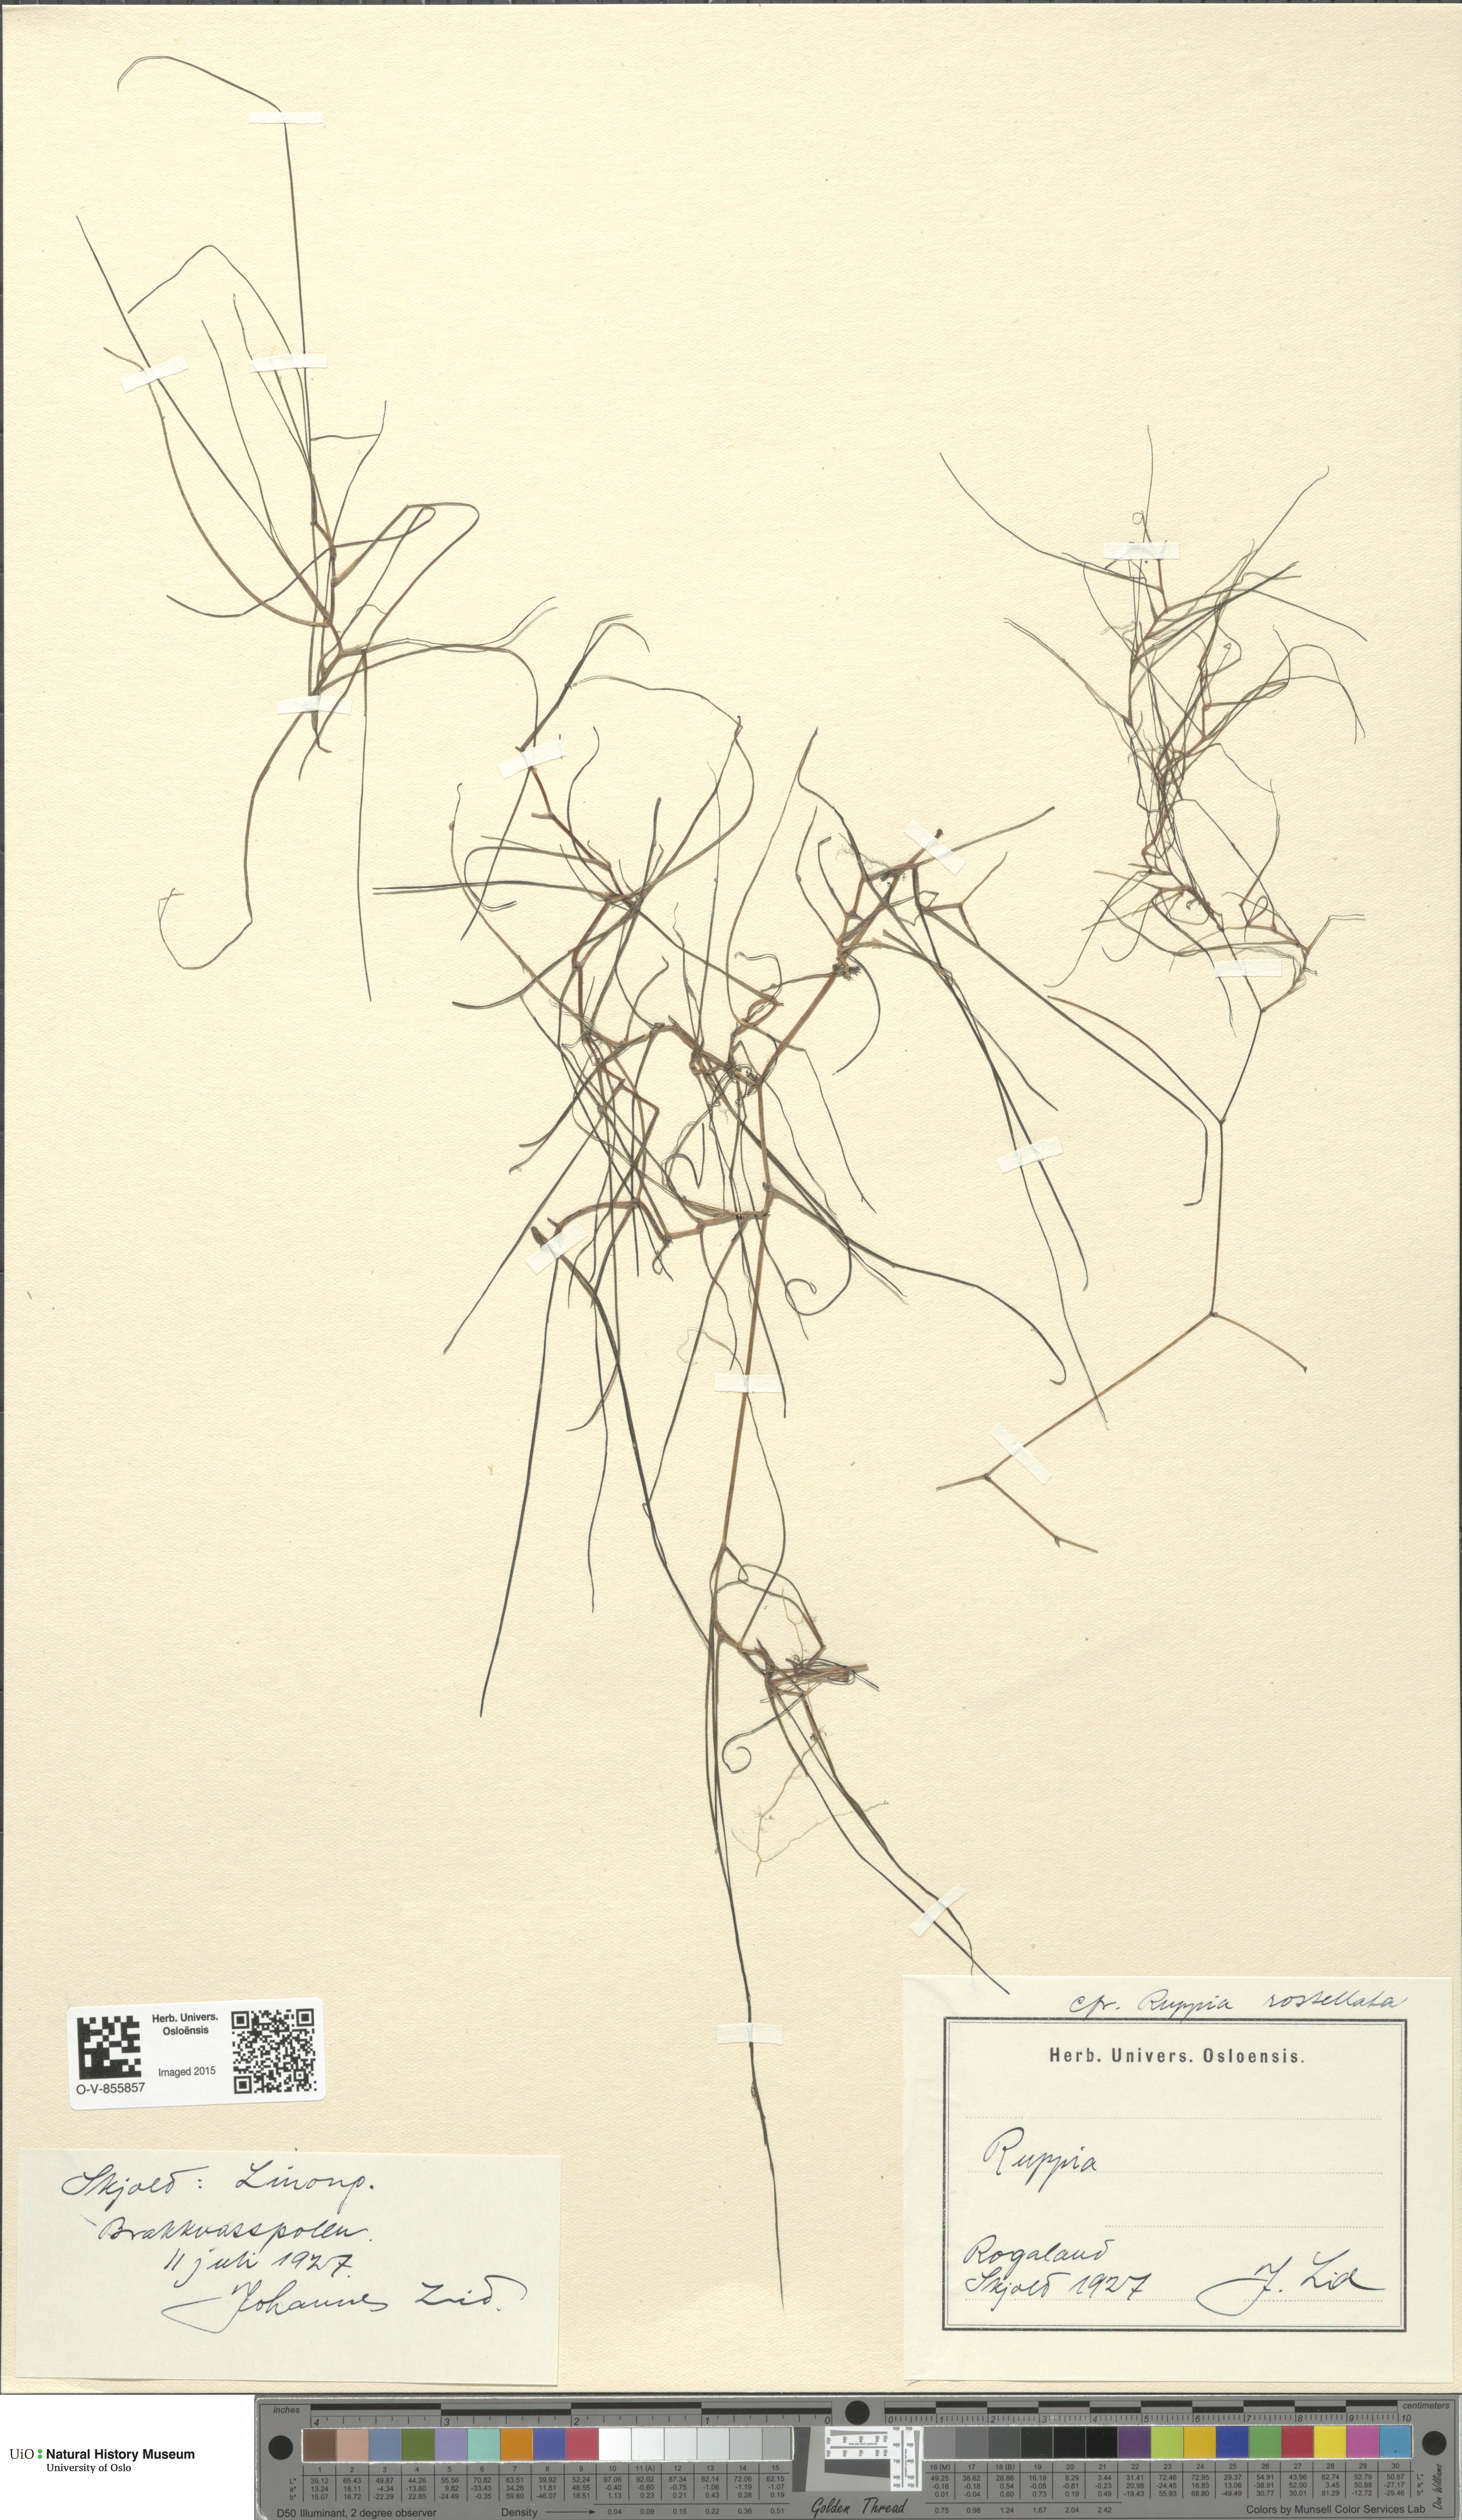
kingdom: Plantae
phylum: Tracheophyta
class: Liliopsida
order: Alismatales
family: Ruppiaceae
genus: Ruppia
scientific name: Ruppia maritima
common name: Beaked tasselweed
